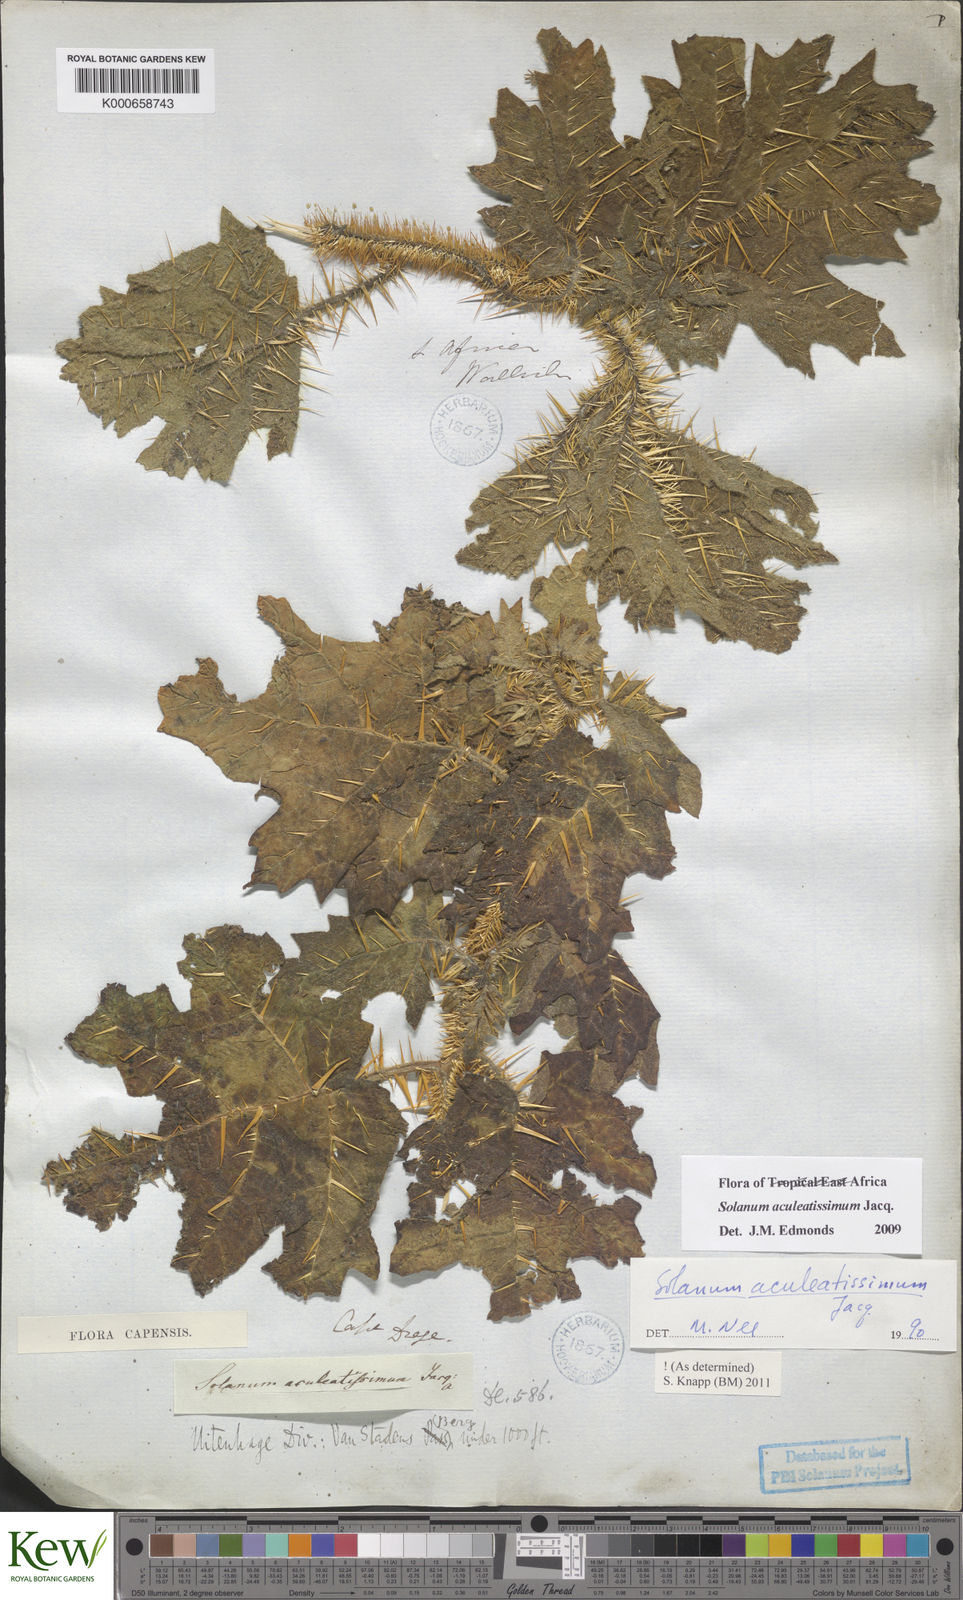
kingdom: Plantae
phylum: Tracheophyta
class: Magnoliopsida
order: Solanales
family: Solanaceae
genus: Solanum
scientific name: Solanum aculeatissimum
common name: Dutch eggplant
